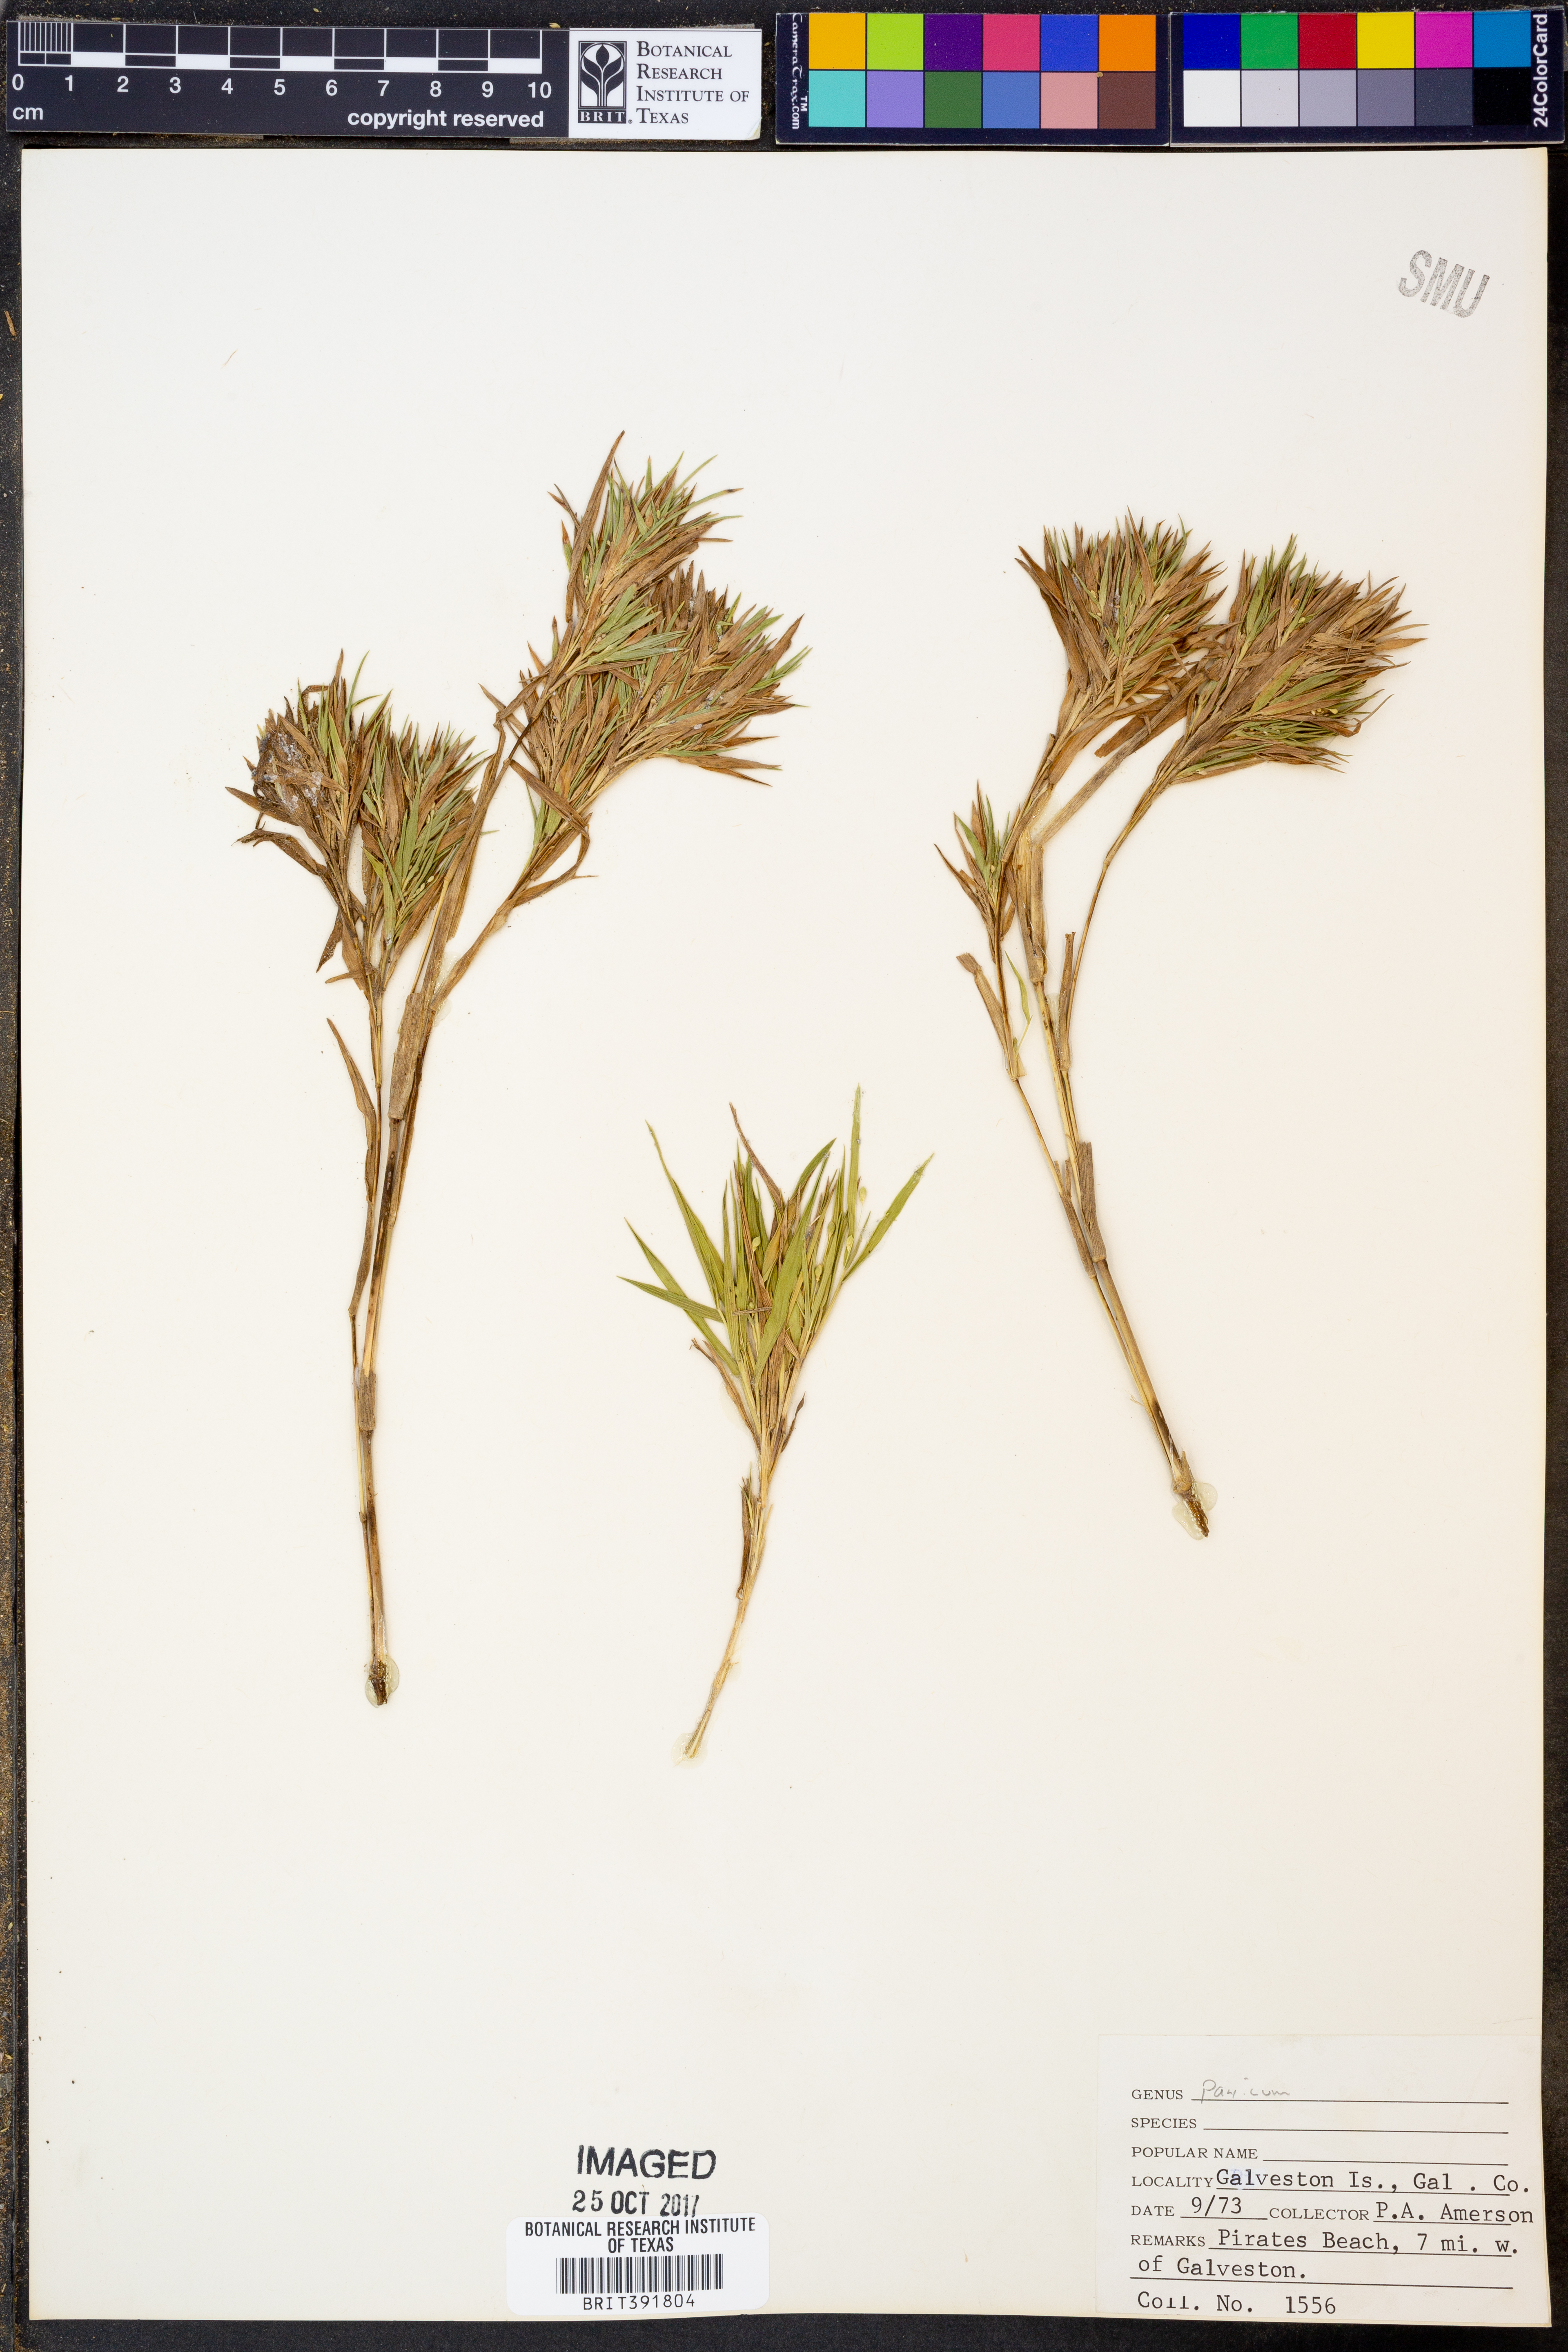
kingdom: Plantae
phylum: Tracheophyta
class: Liliopsida
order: Poales
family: Poaceae
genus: Panicum
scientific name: Panicum
